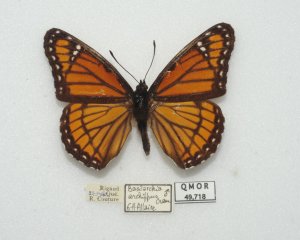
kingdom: Animalia
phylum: Arthropoda
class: Insecta
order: Lepidoptera
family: Nymphalidae
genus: Limenitis
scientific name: Limenitis archippus
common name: Viceroy
